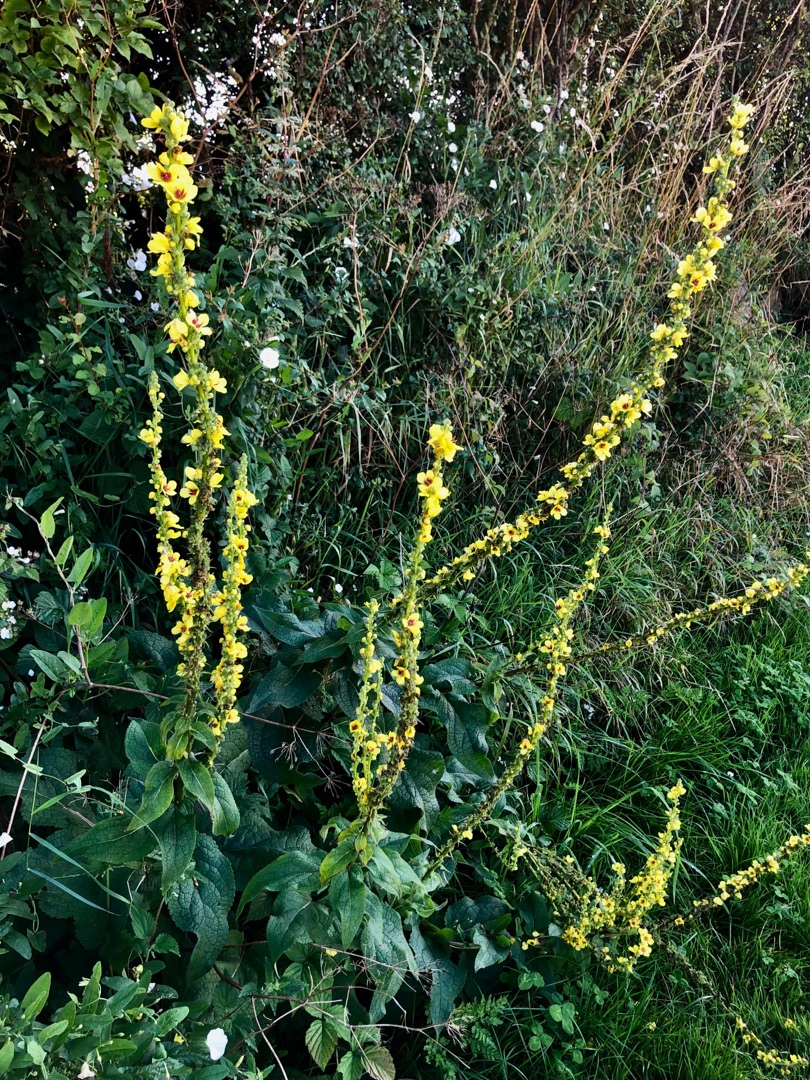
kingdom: Plantae
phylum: Tracheophyta
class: Magnoliopsida
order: Lamiales
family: Scrophulariaceae
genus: Verbascum
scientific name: Verbascum nigrum
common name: Mørk kongelys
